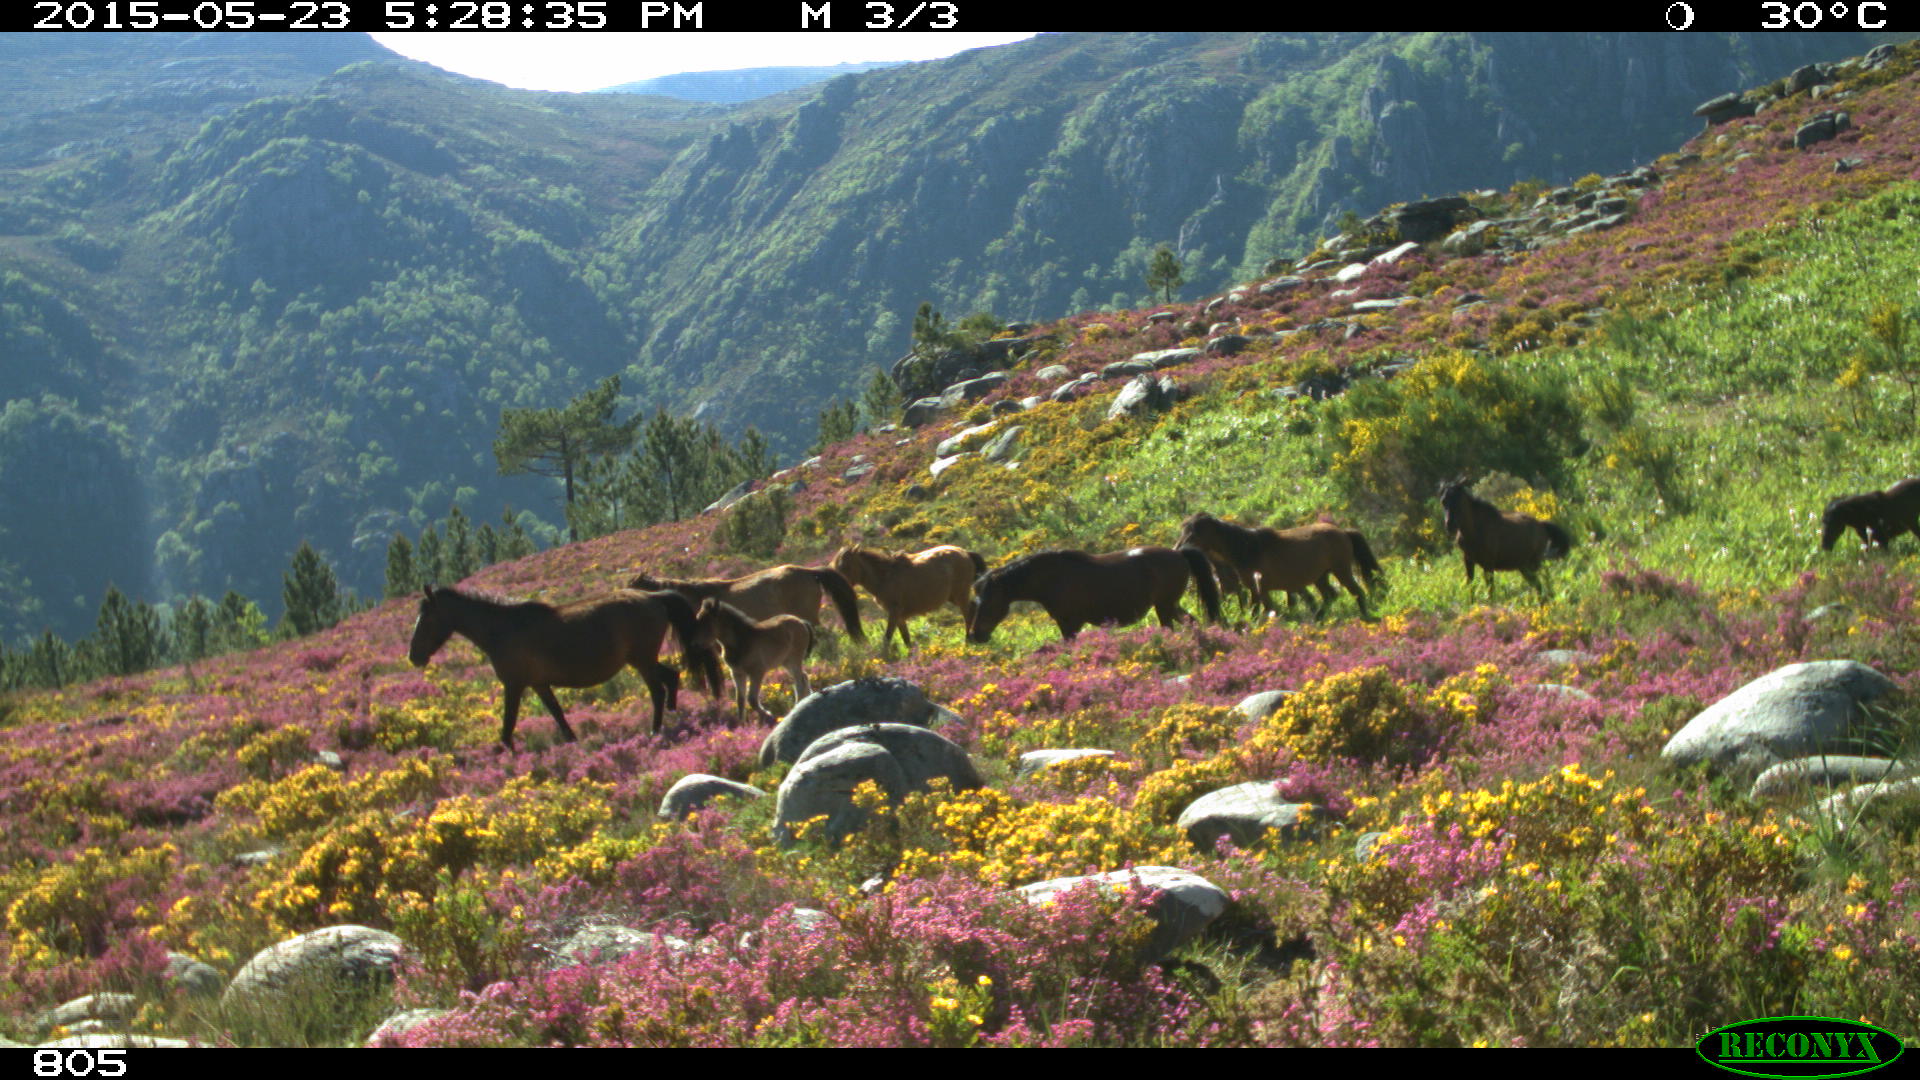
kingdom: Animalia
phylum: Chordata
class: Mammalia
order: Perissodactyla
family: Equidae
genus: Equus
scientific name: Equus caballus
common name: Horse
